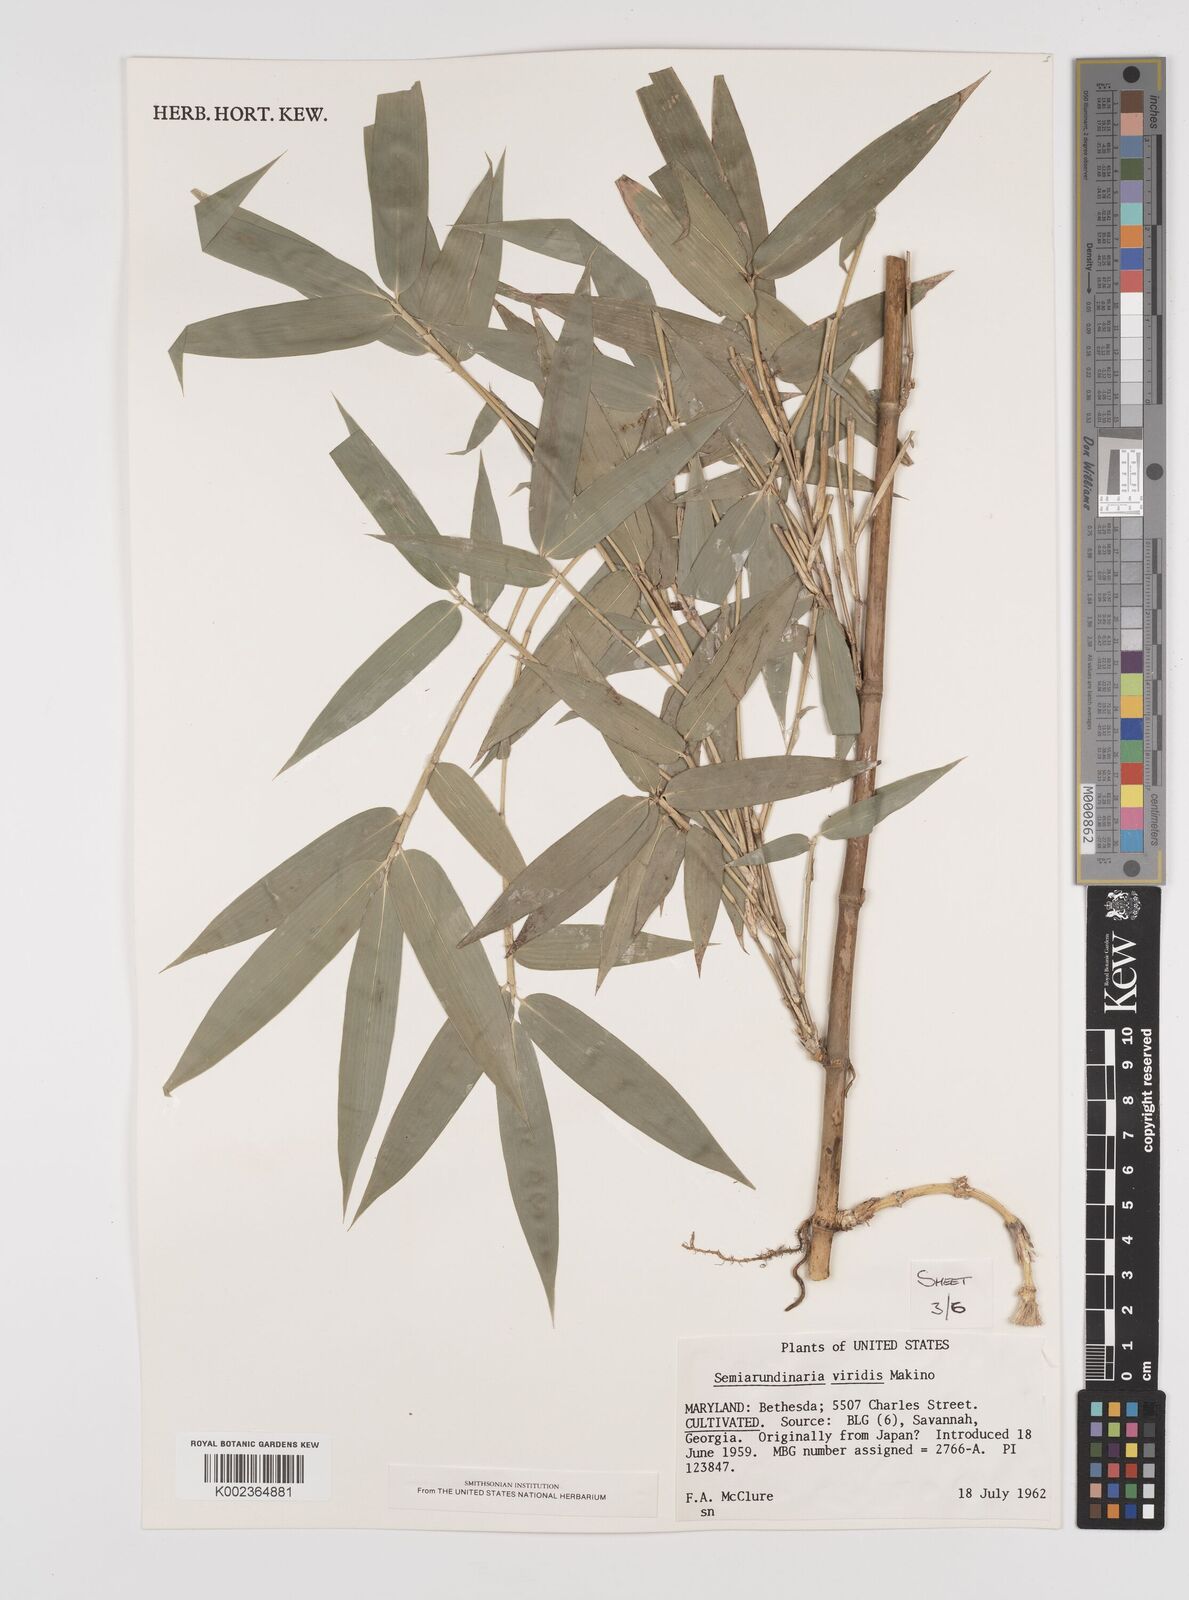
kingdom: Plantae
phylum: Tracheophyta
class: Liliopsida
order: Poales
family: Poaceae
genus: Semiarundinaria
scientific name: Semiarundinaria fastuosa
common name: Narihira bamboo
